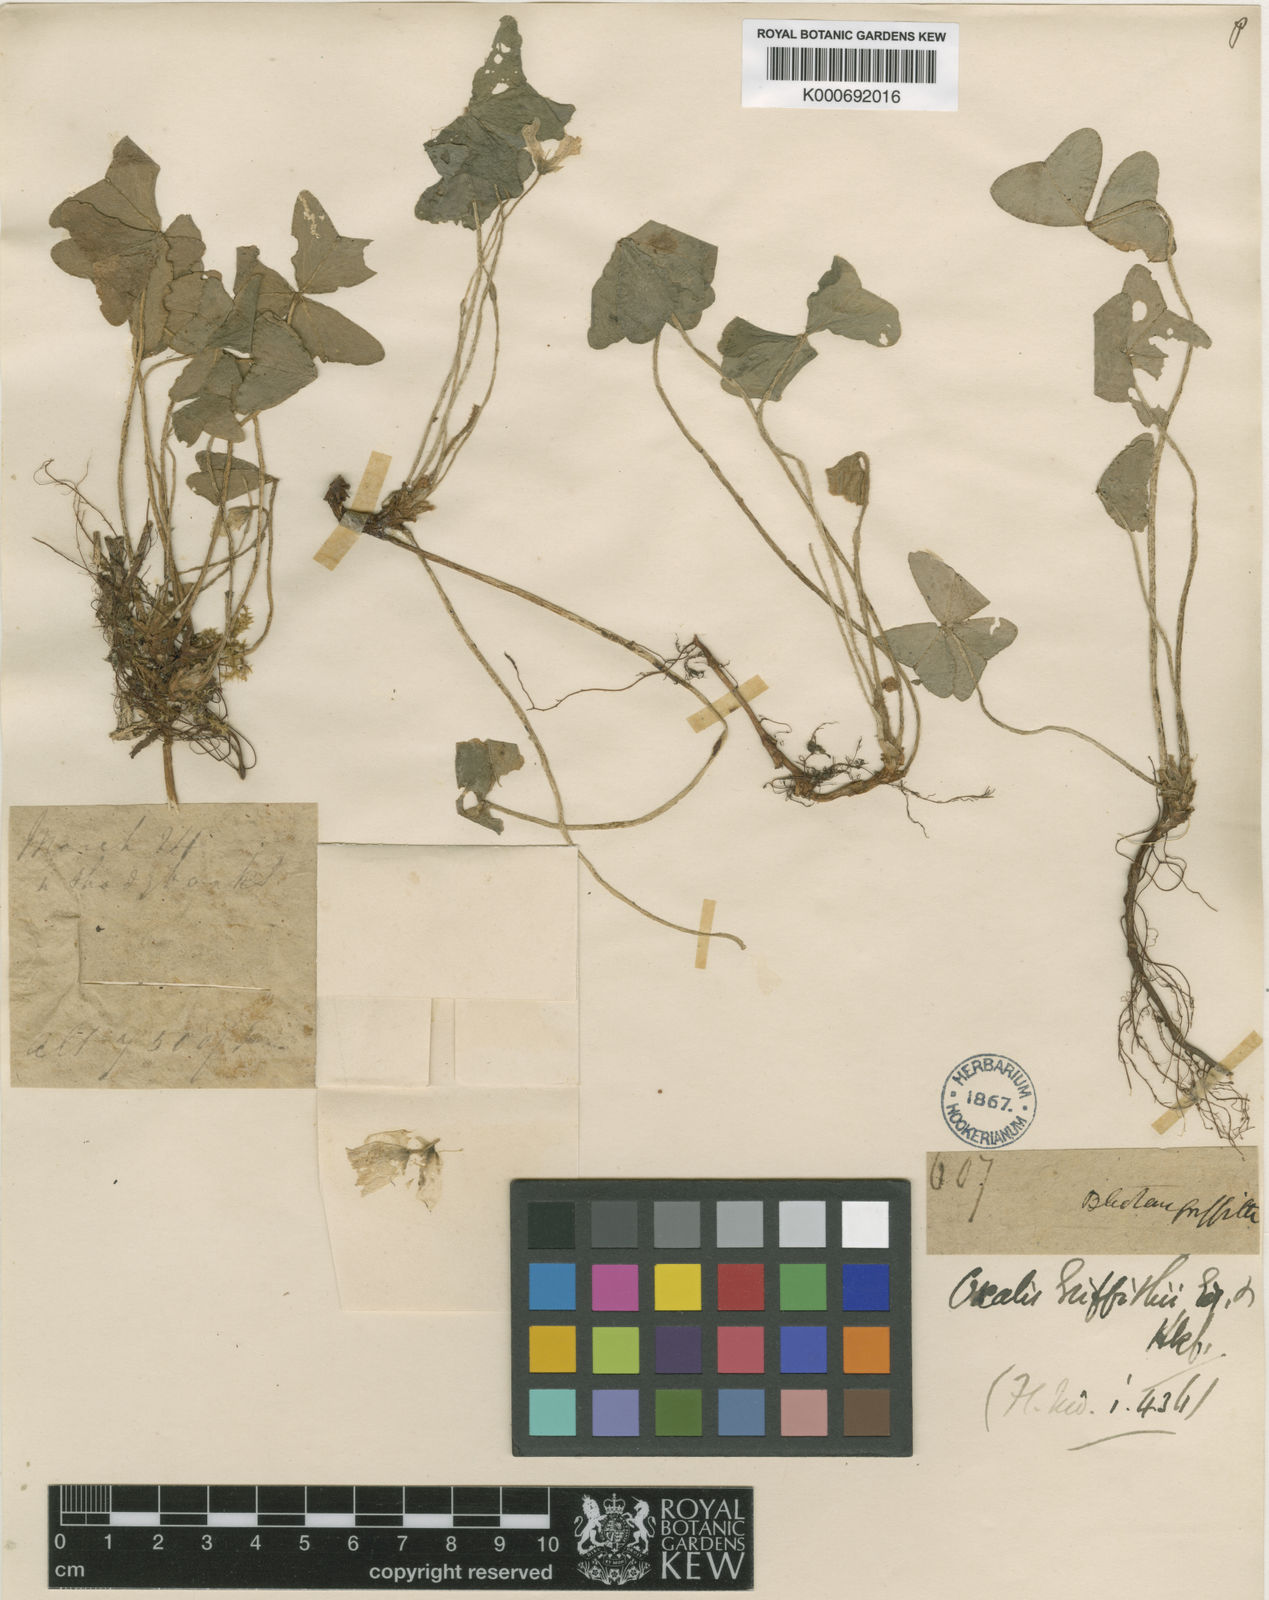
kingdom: Plantae
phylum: Tracheophyta
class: Magnoliopsida
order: Oxalidales
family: Oxalidaceae
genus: Oxalis
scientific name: Oxalis griffithii
